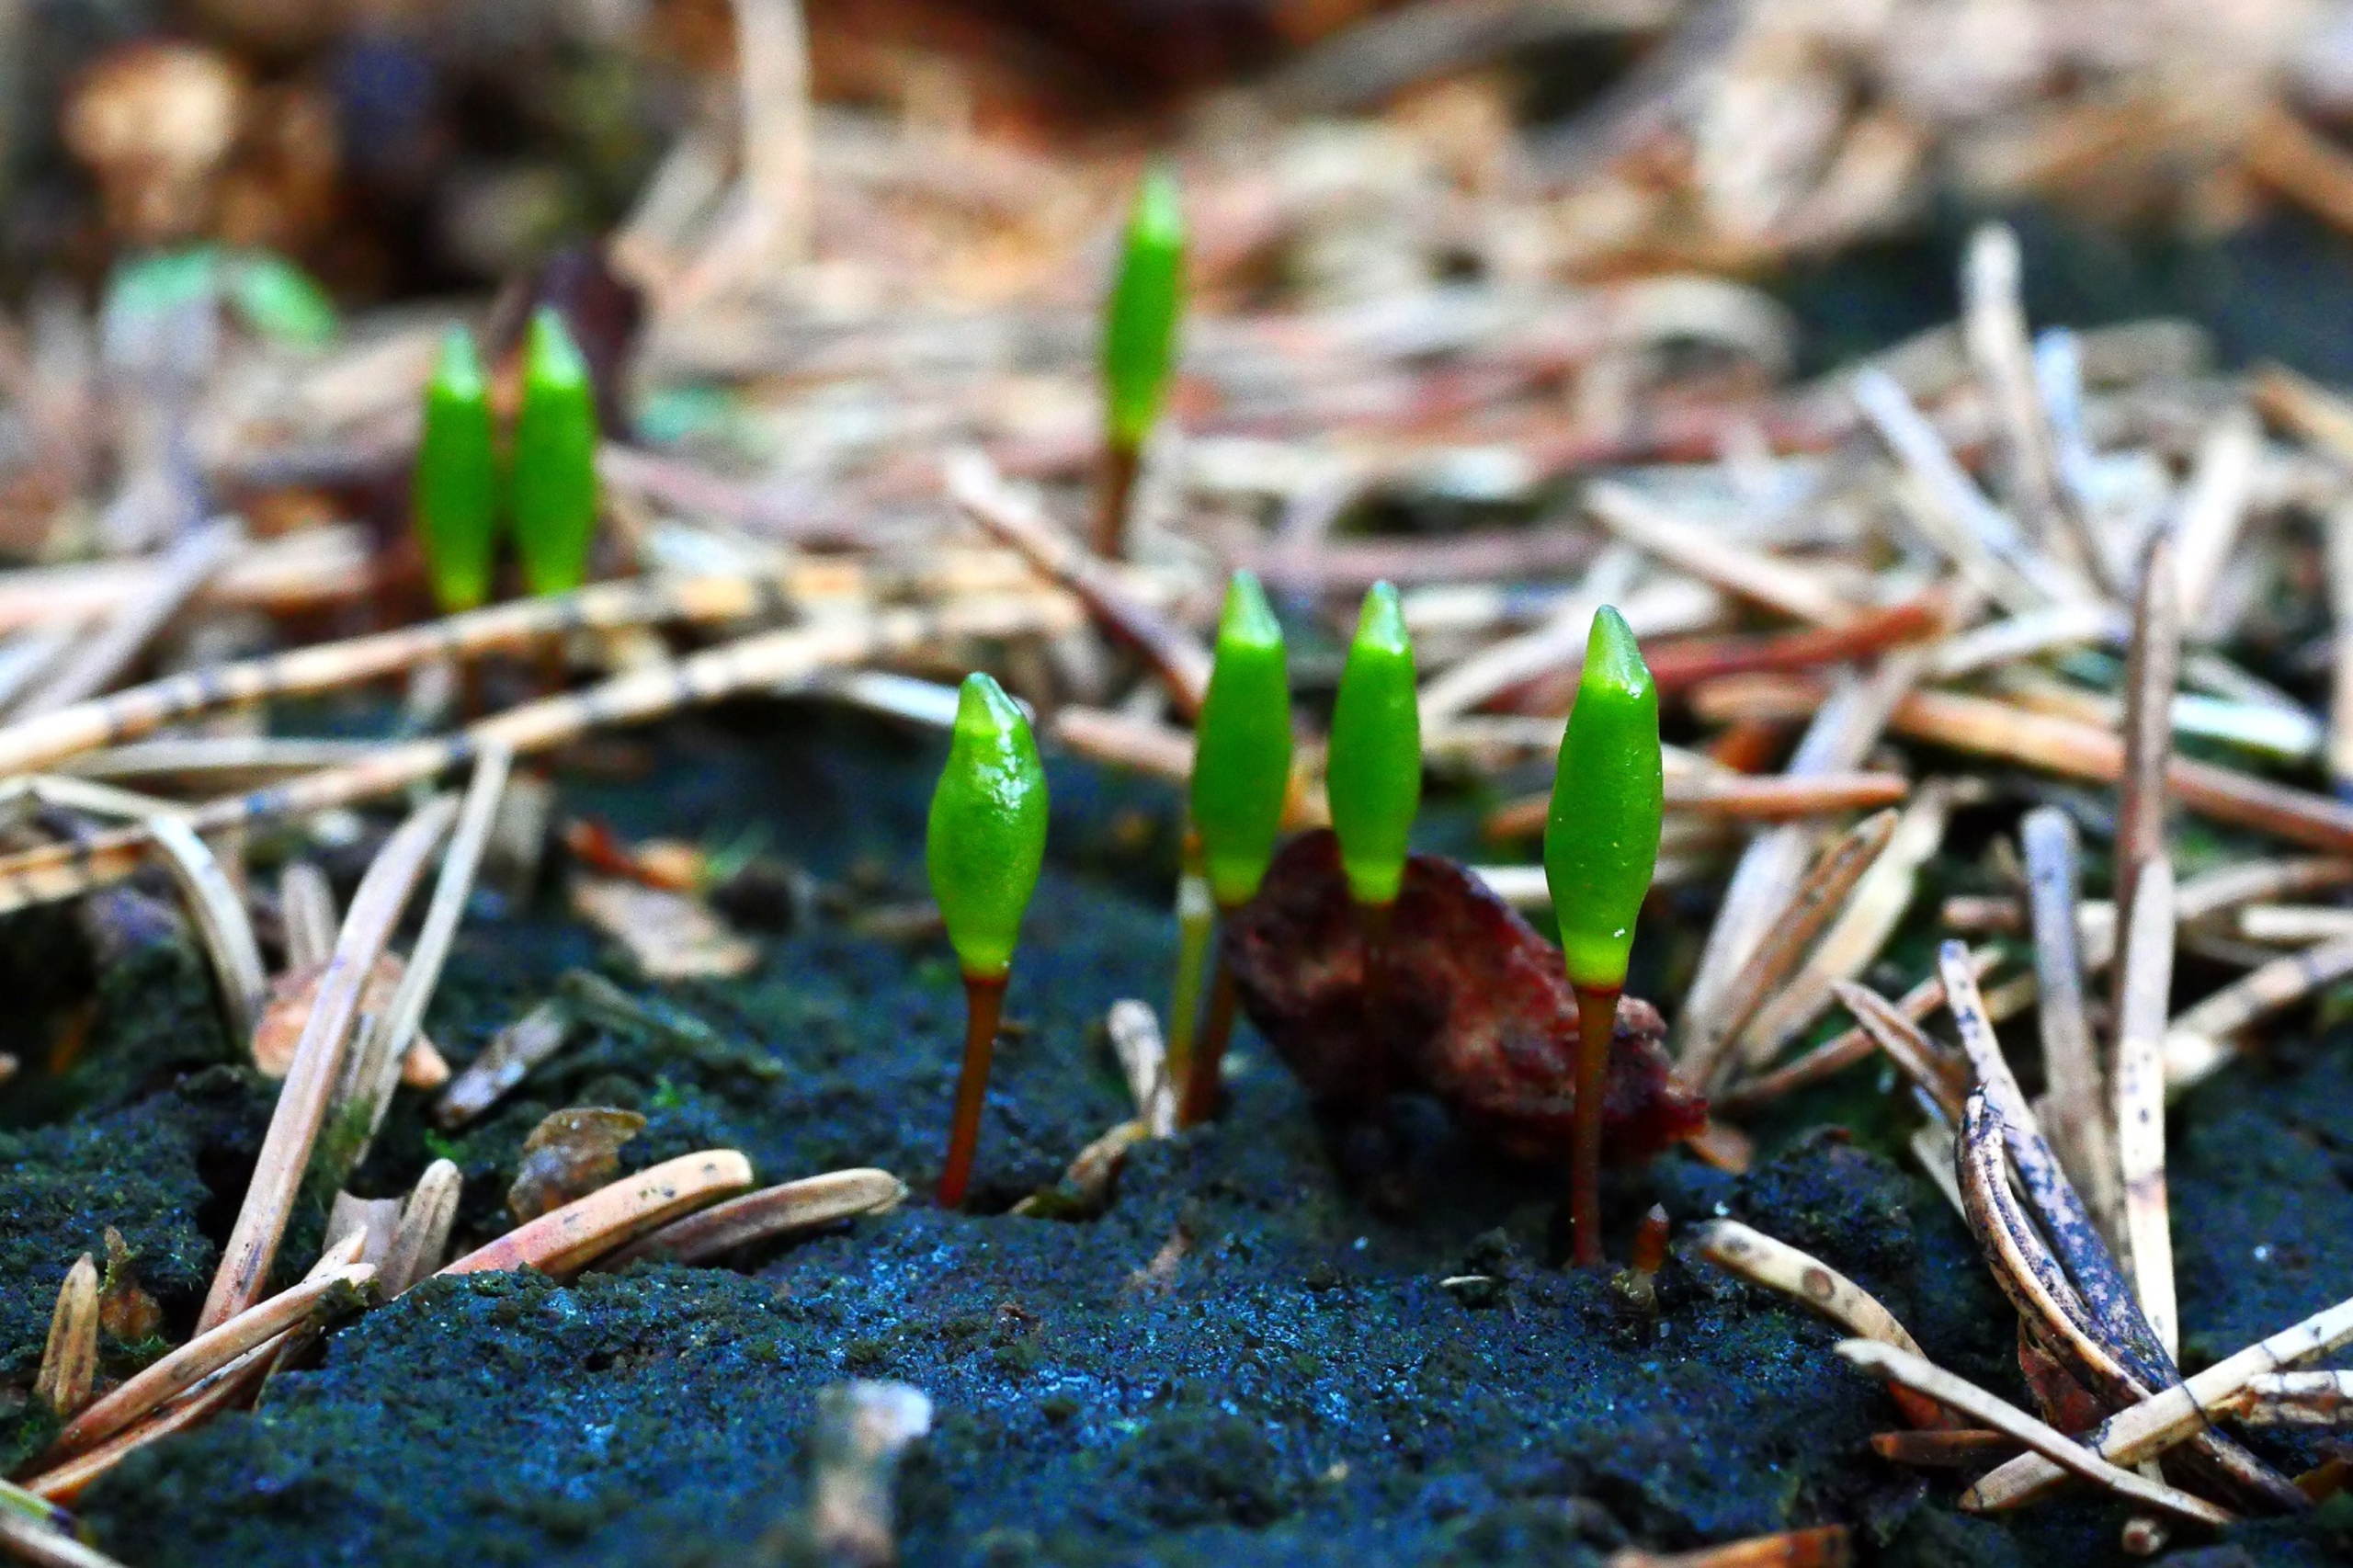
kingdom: Plantae
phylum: Bryophyta
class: Bryopsida
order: Buxbaumiales
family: Buxbaumiaceae
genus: Buxbaumia
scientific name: Buxbaumia viridis
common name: Grøn buxbaumia
